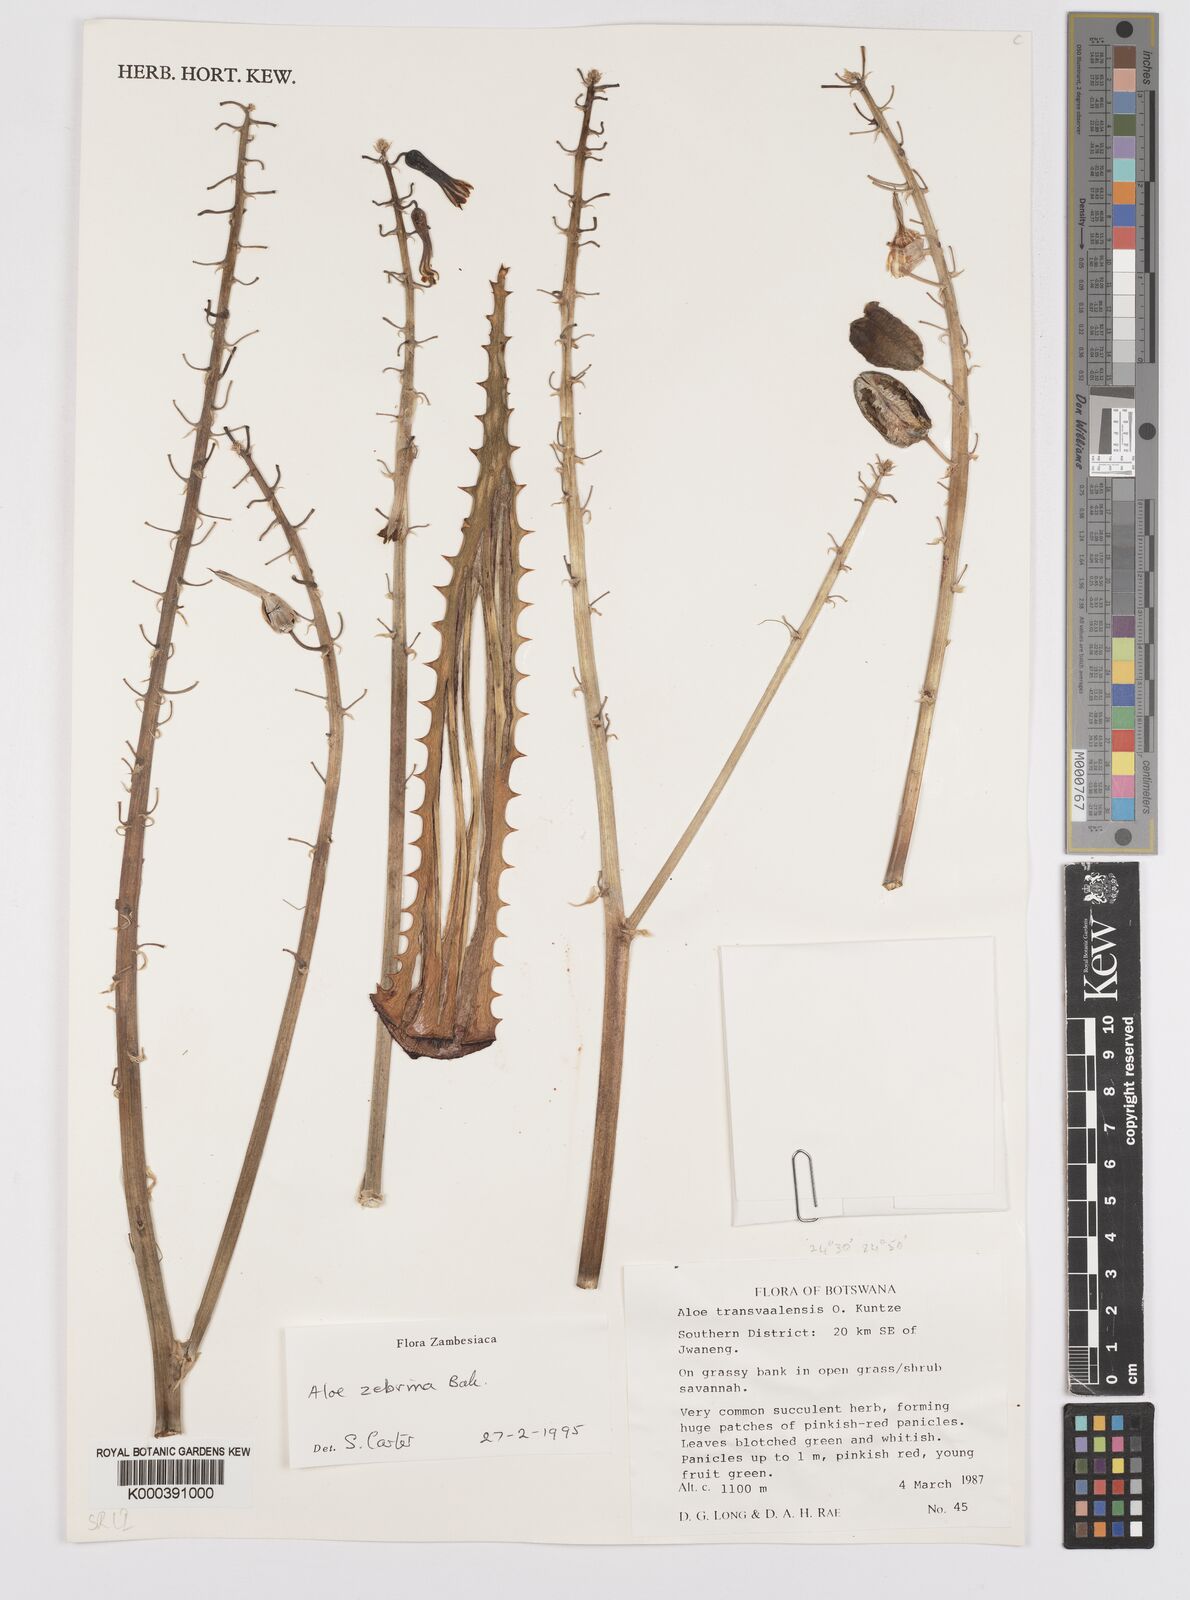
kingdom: Plantae
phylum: Tracheophyta
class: Liliopsida
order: Asparagales
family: Asphodelaceae
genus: Aloe
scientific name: Aloe zebrina
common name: Zebra-leaf aloe
